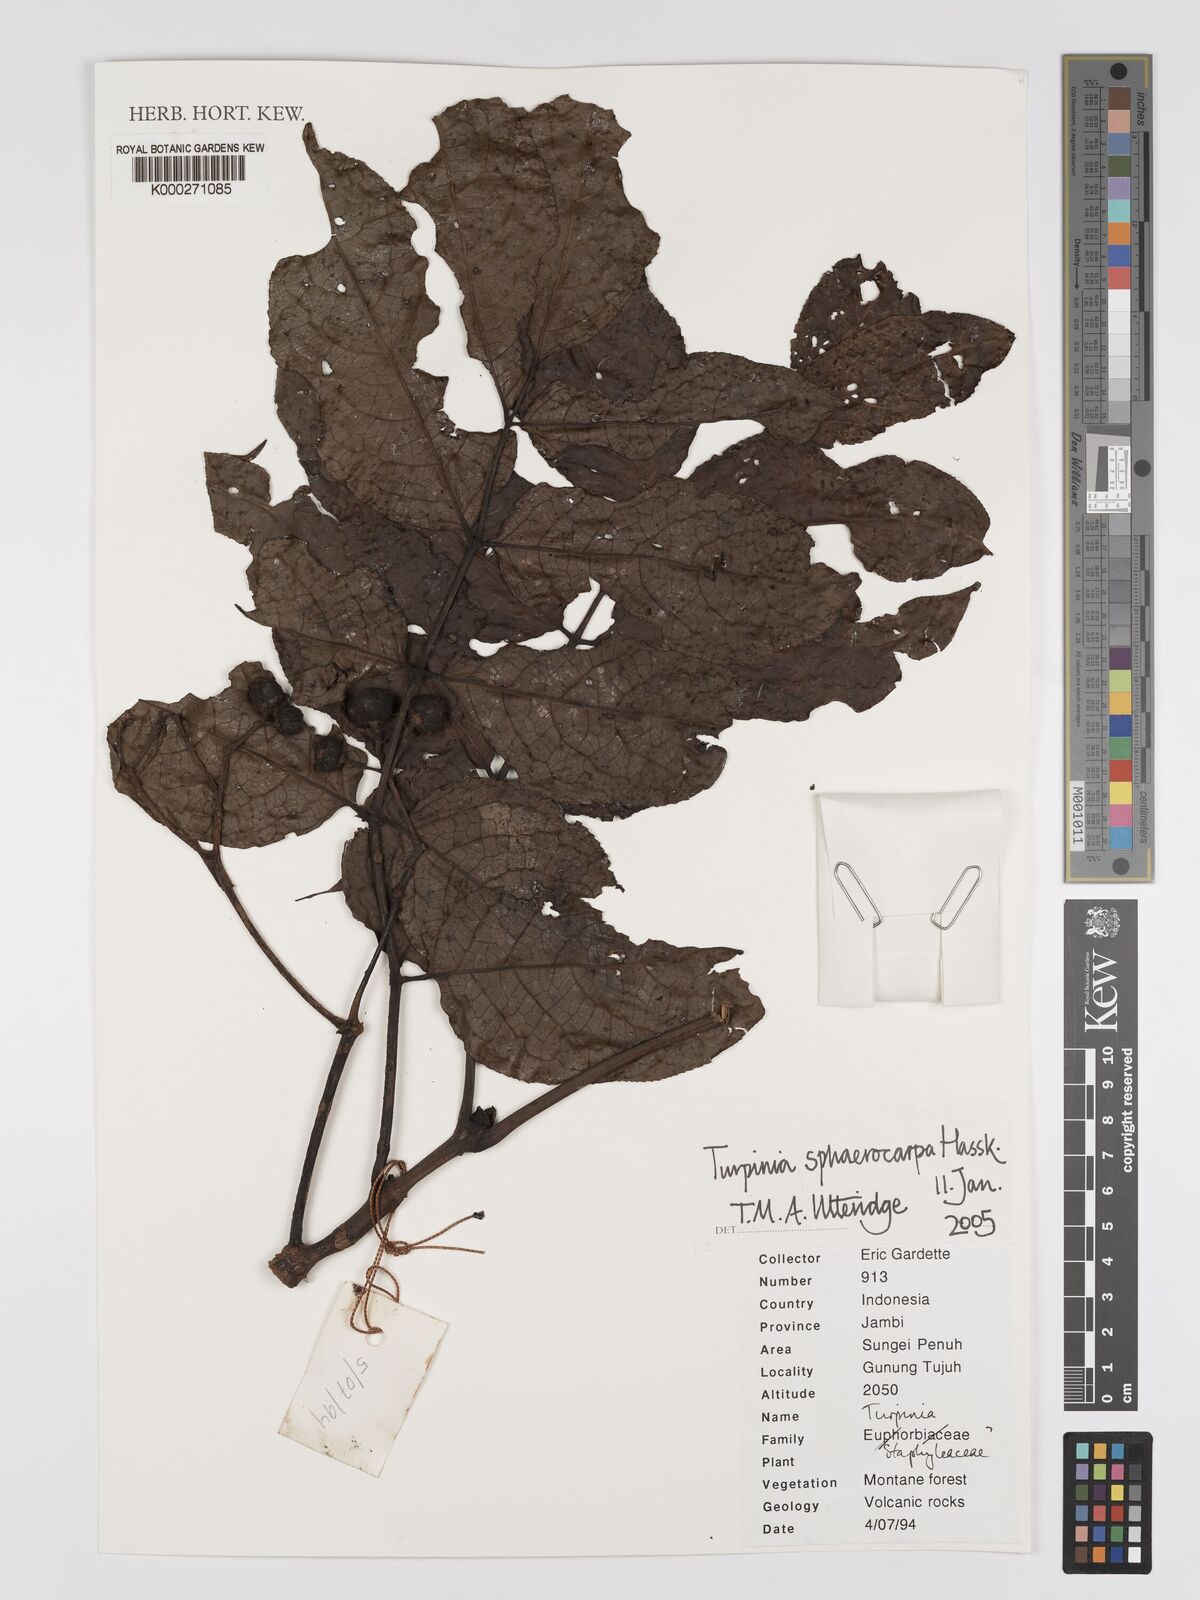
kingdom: Plantae
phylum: Tracheophyta
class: Magnoliopsida
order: Crossosomatales
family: Staphyleaceae
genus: Dalrympelea
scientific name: Dalrympelea sphaerocarpa
